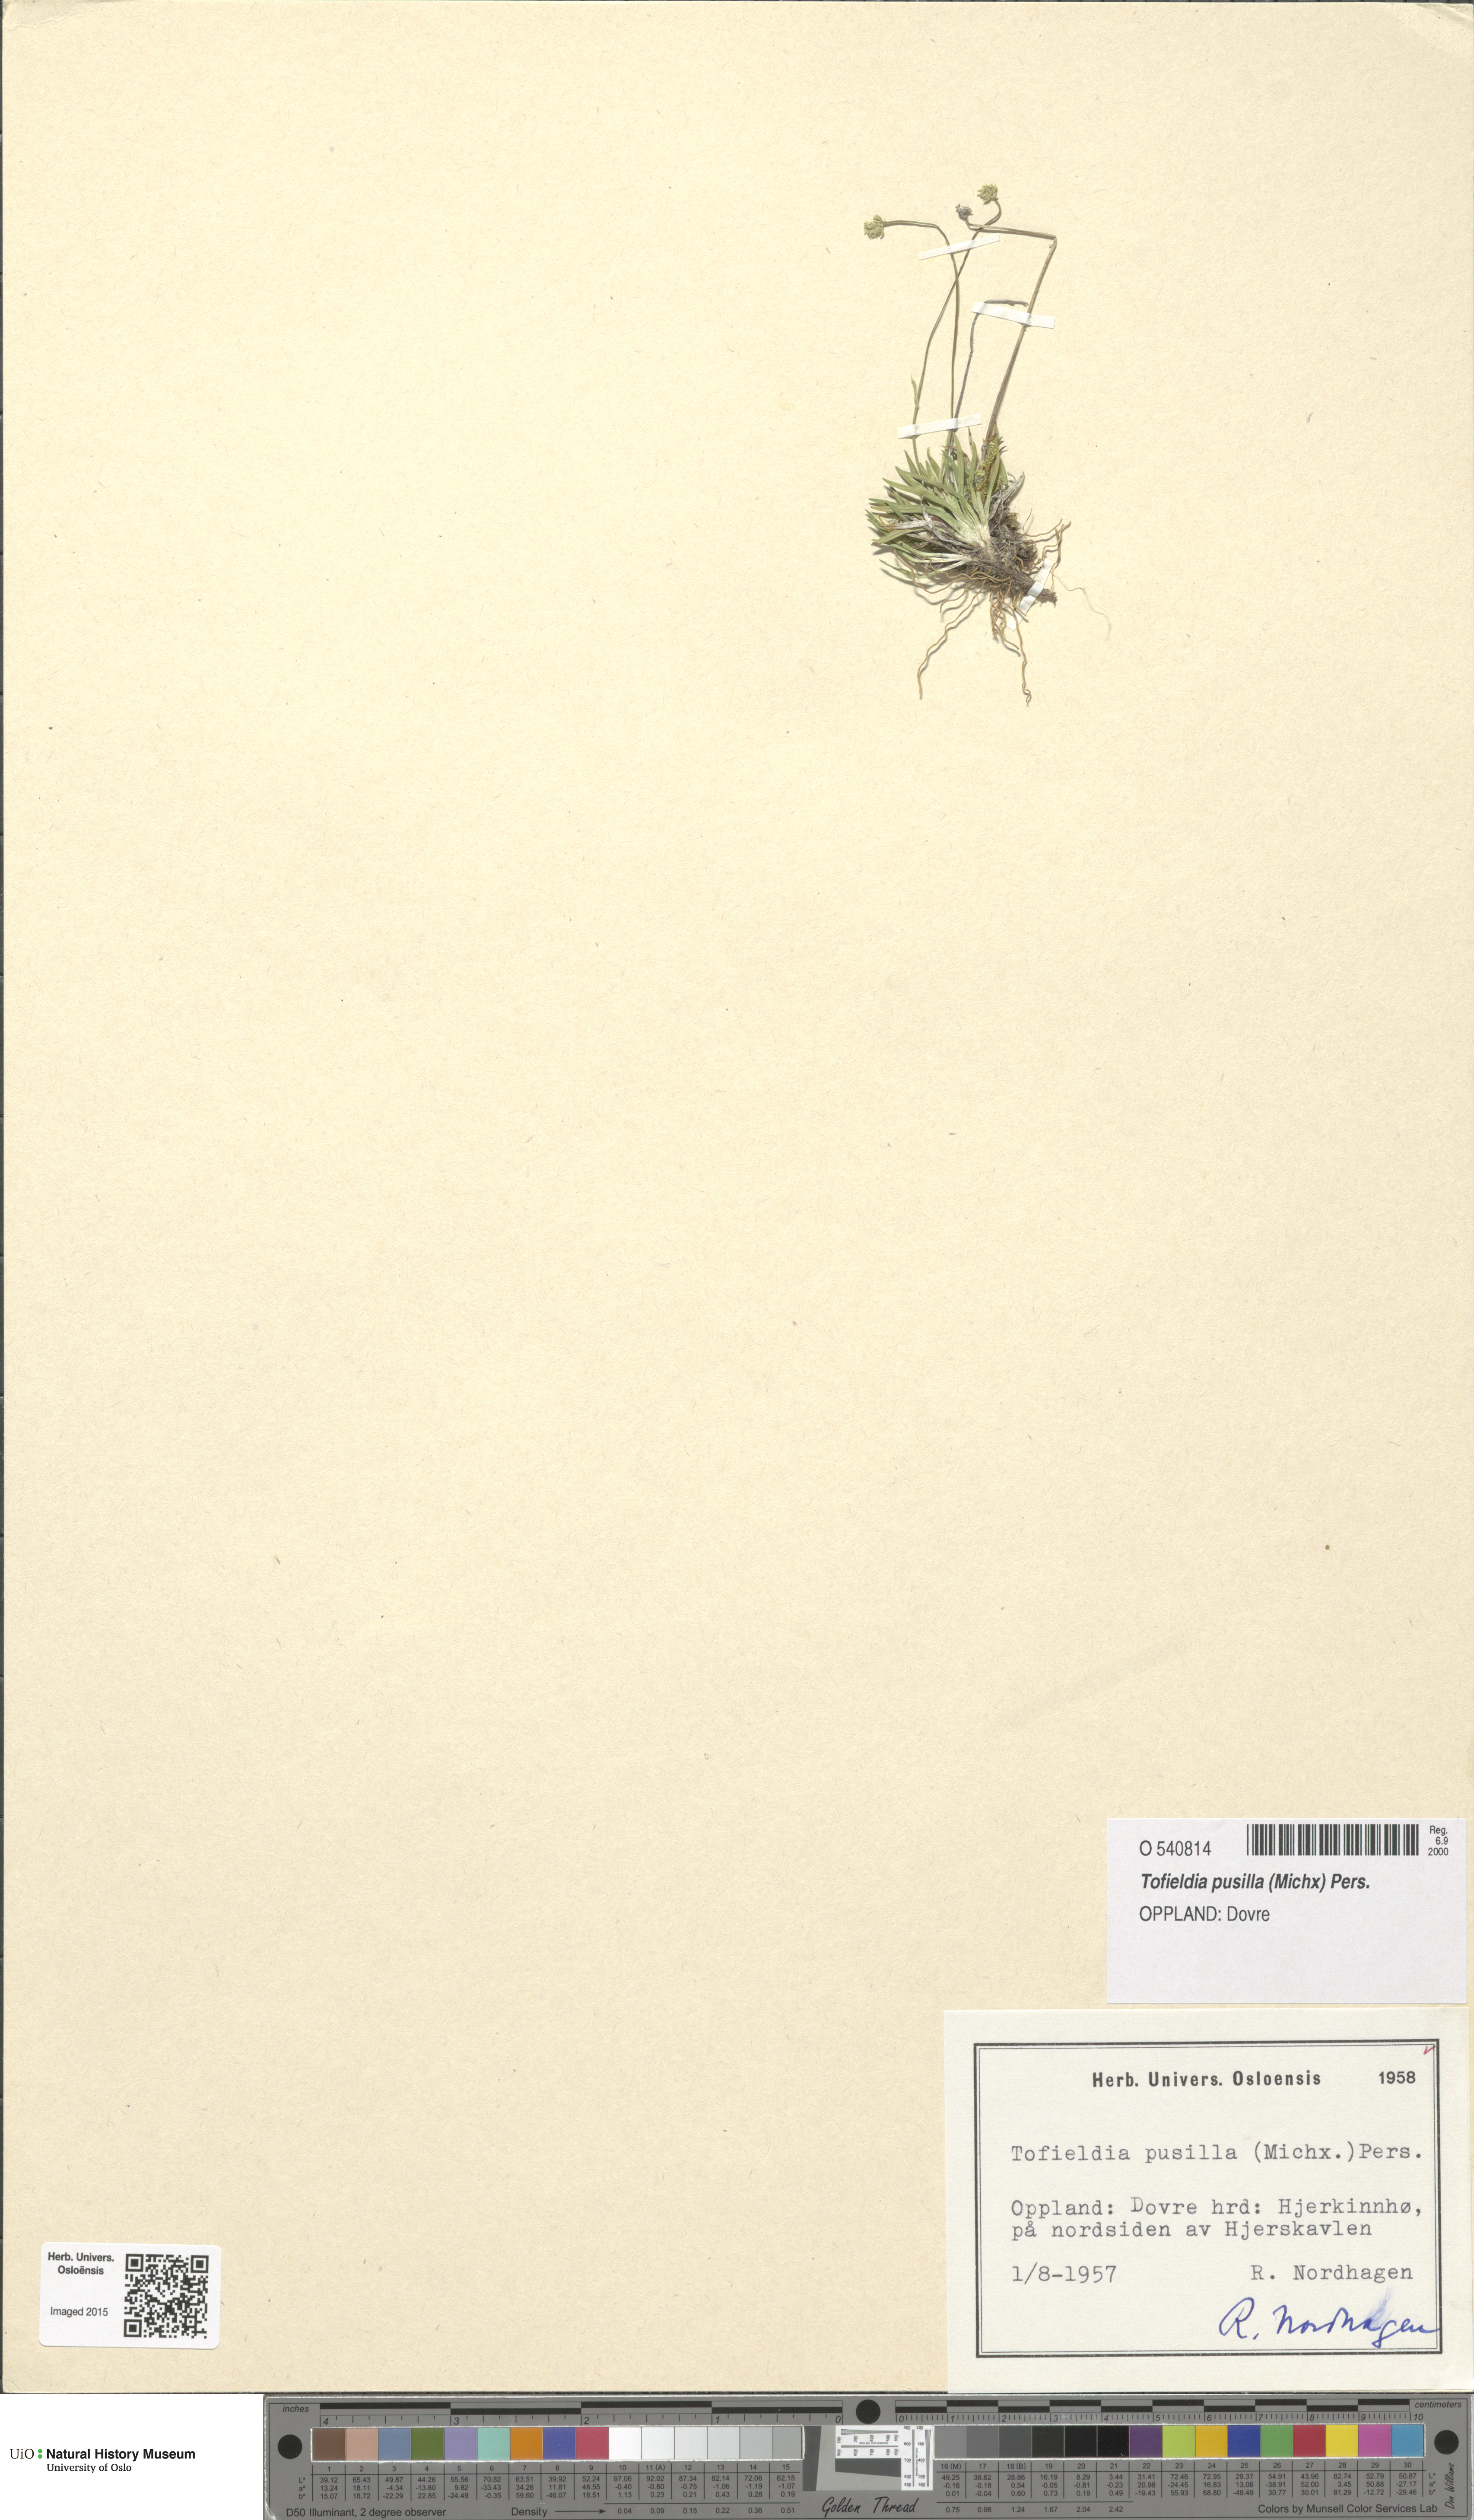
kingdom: Plantae
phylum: Tracheophyta
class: Liliopsida
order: Alismatales
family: Tofieldiaceae
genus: Tofieldia
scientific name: Tofieldia pusilla
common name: Scottish false asphodel
